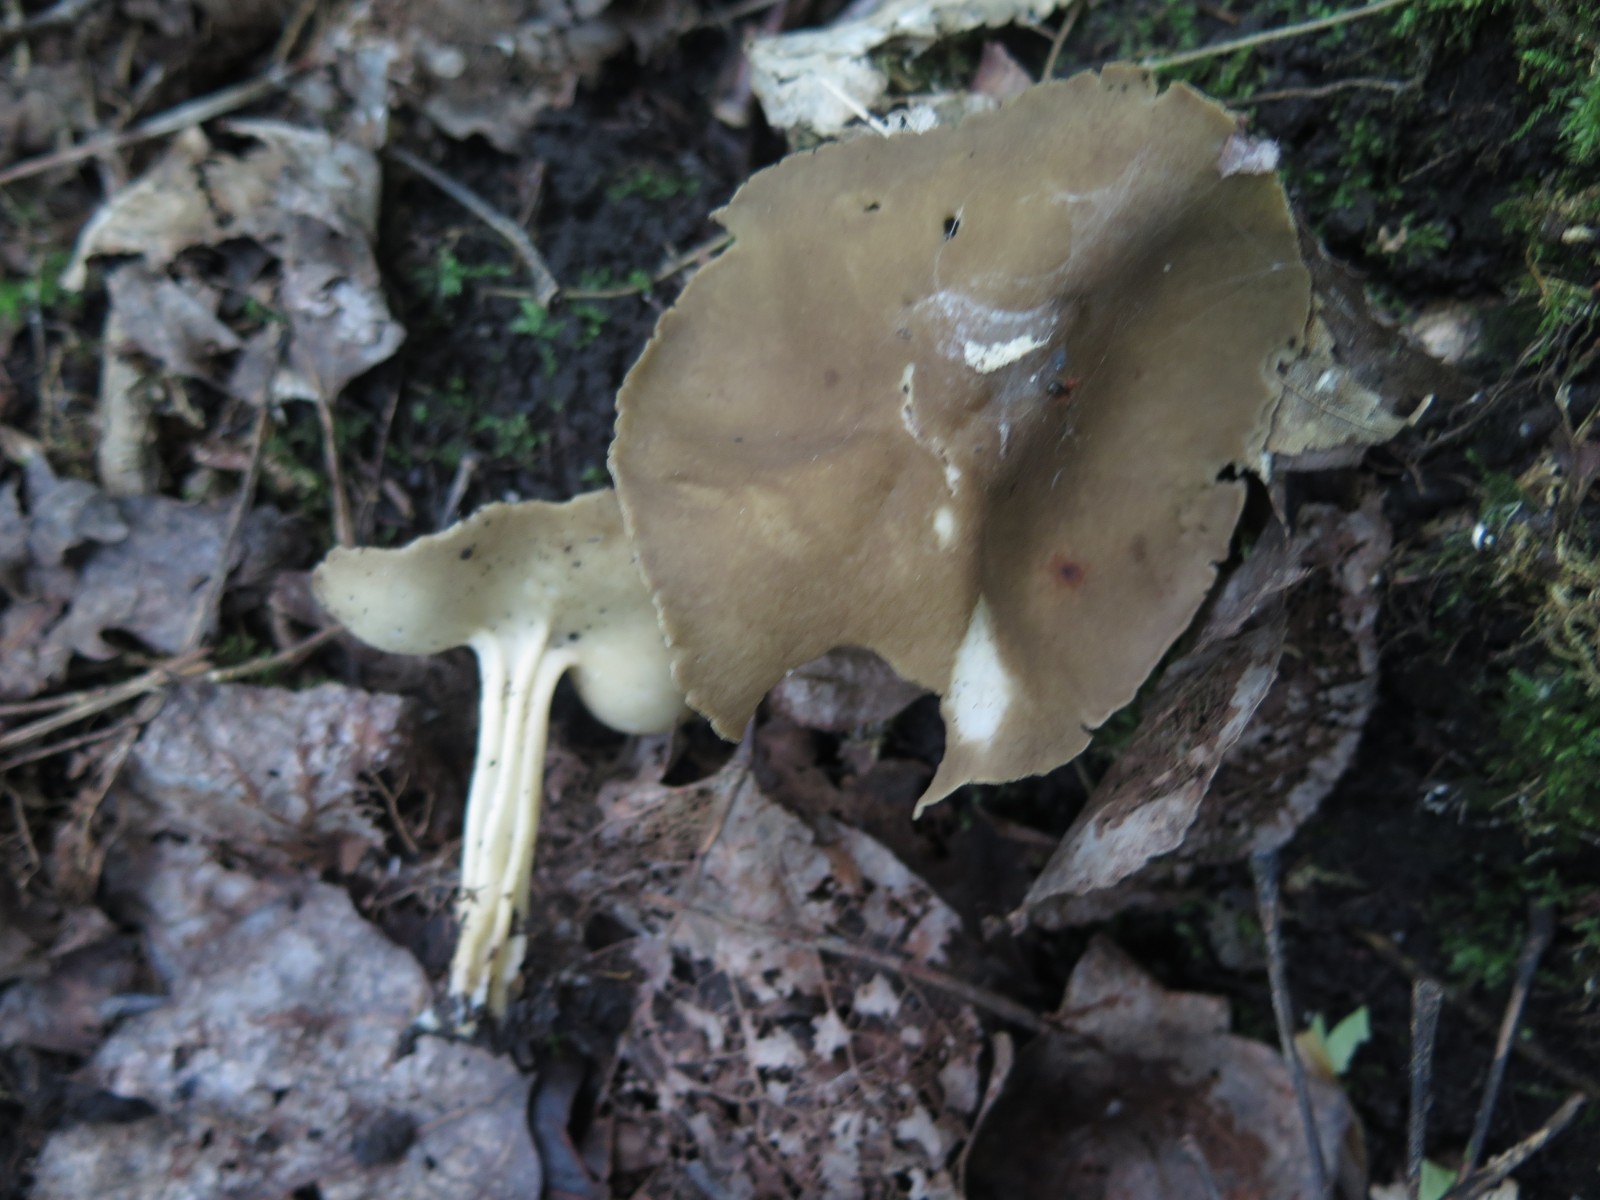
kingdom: Fungi
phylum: Ascomycota
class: Pezizomycetes
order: Pezizales
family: Helvellaceae
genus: Helvella
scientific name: Helvella acetabulum
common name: pokal-foldhat
